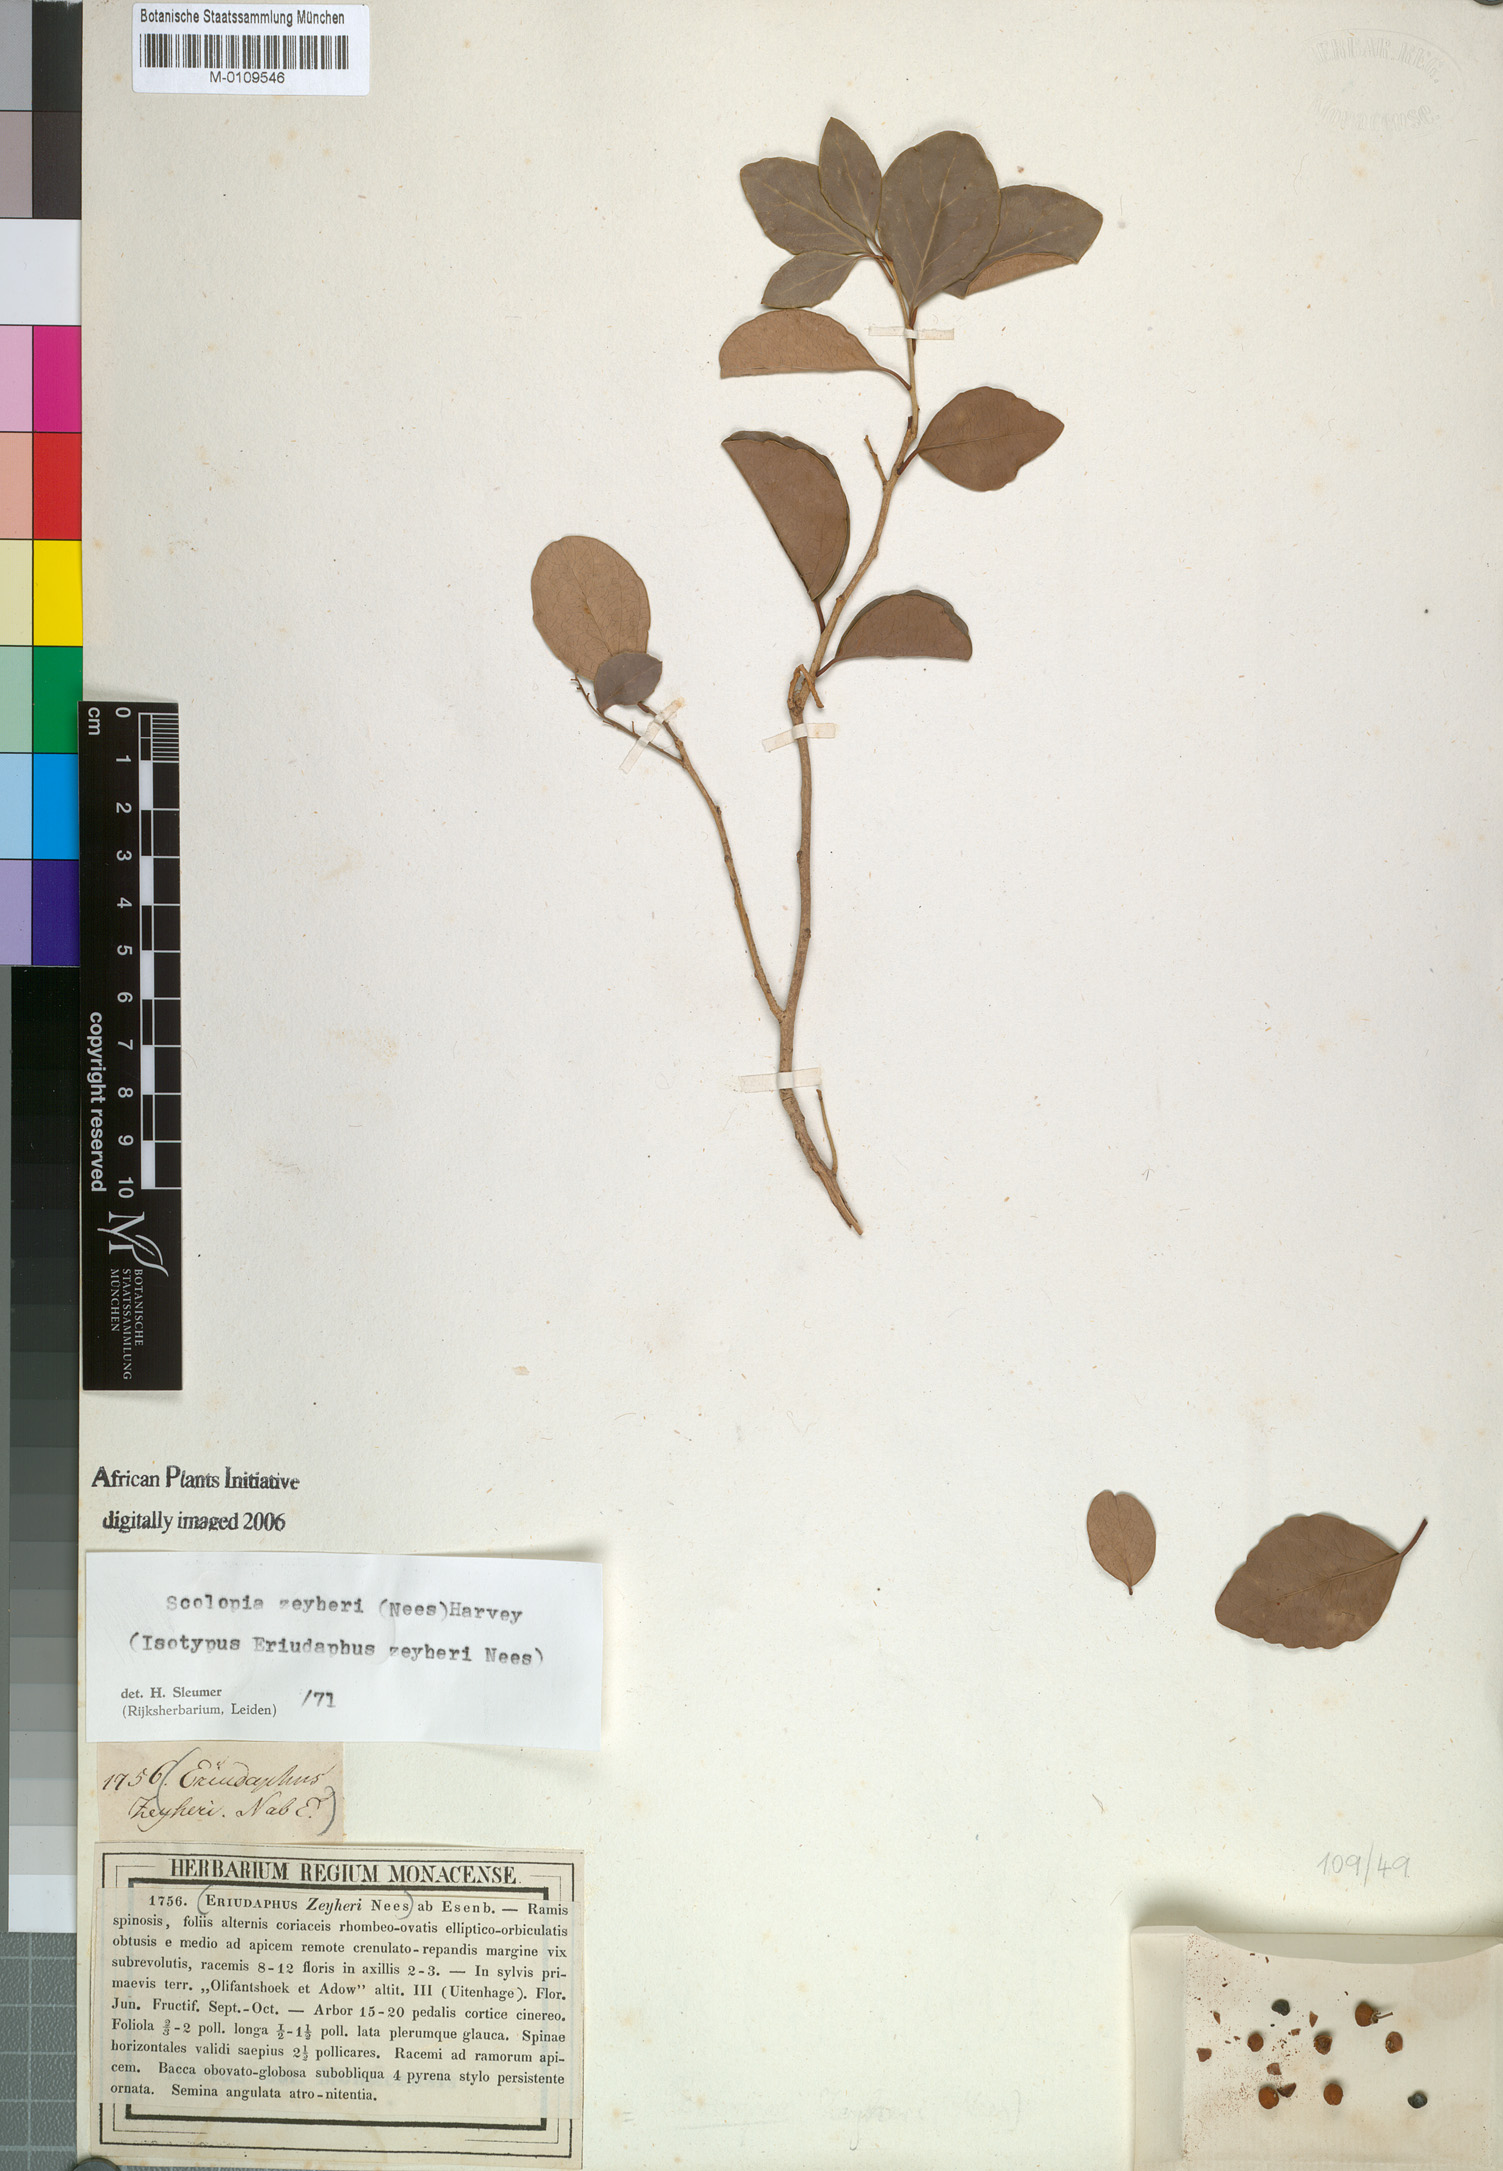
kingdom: Plantae
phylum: Tracheophyta
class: Magnoliopsida
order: Malpighiales
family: Salicaceae
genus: Scolopia
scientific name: Scolopia zeyheri
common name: Thorn pear
